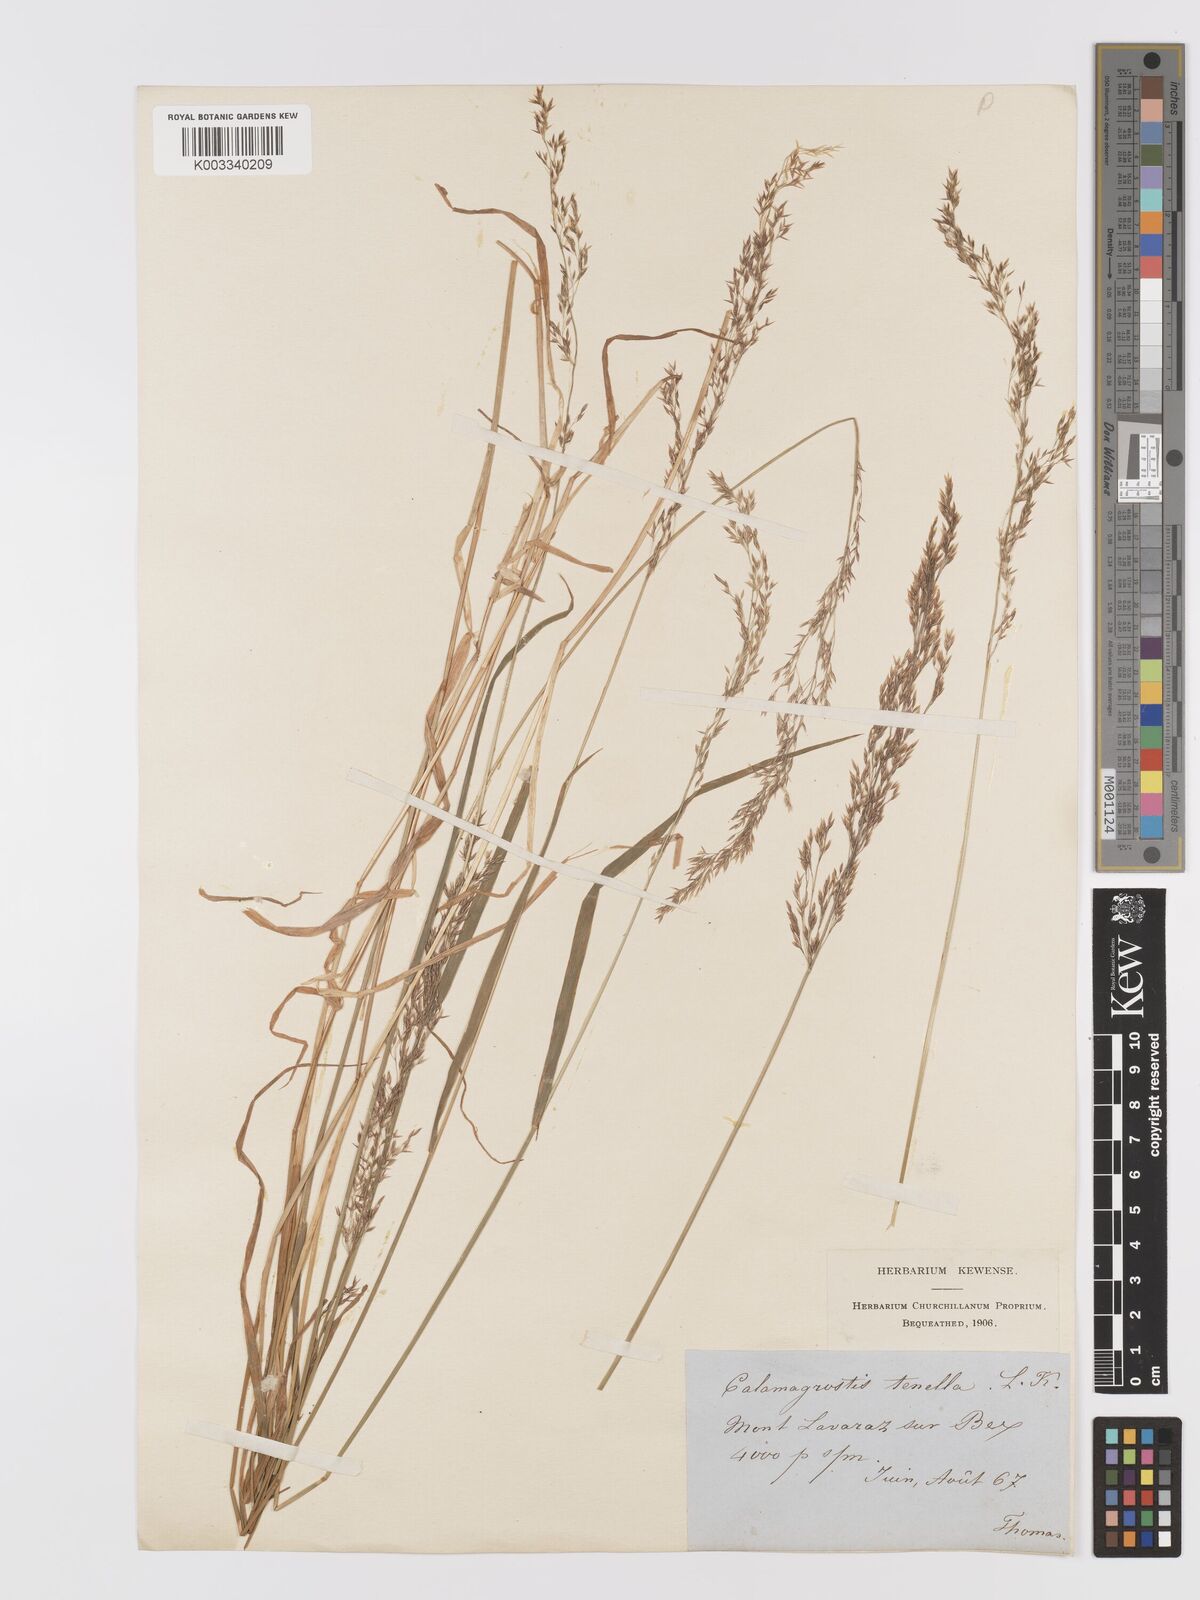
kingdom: Plantae
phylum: Tracheophyta
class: Liliopsida
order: Poales
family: Poaceae
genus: Agrostis
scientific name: Agrostis schraderiana
